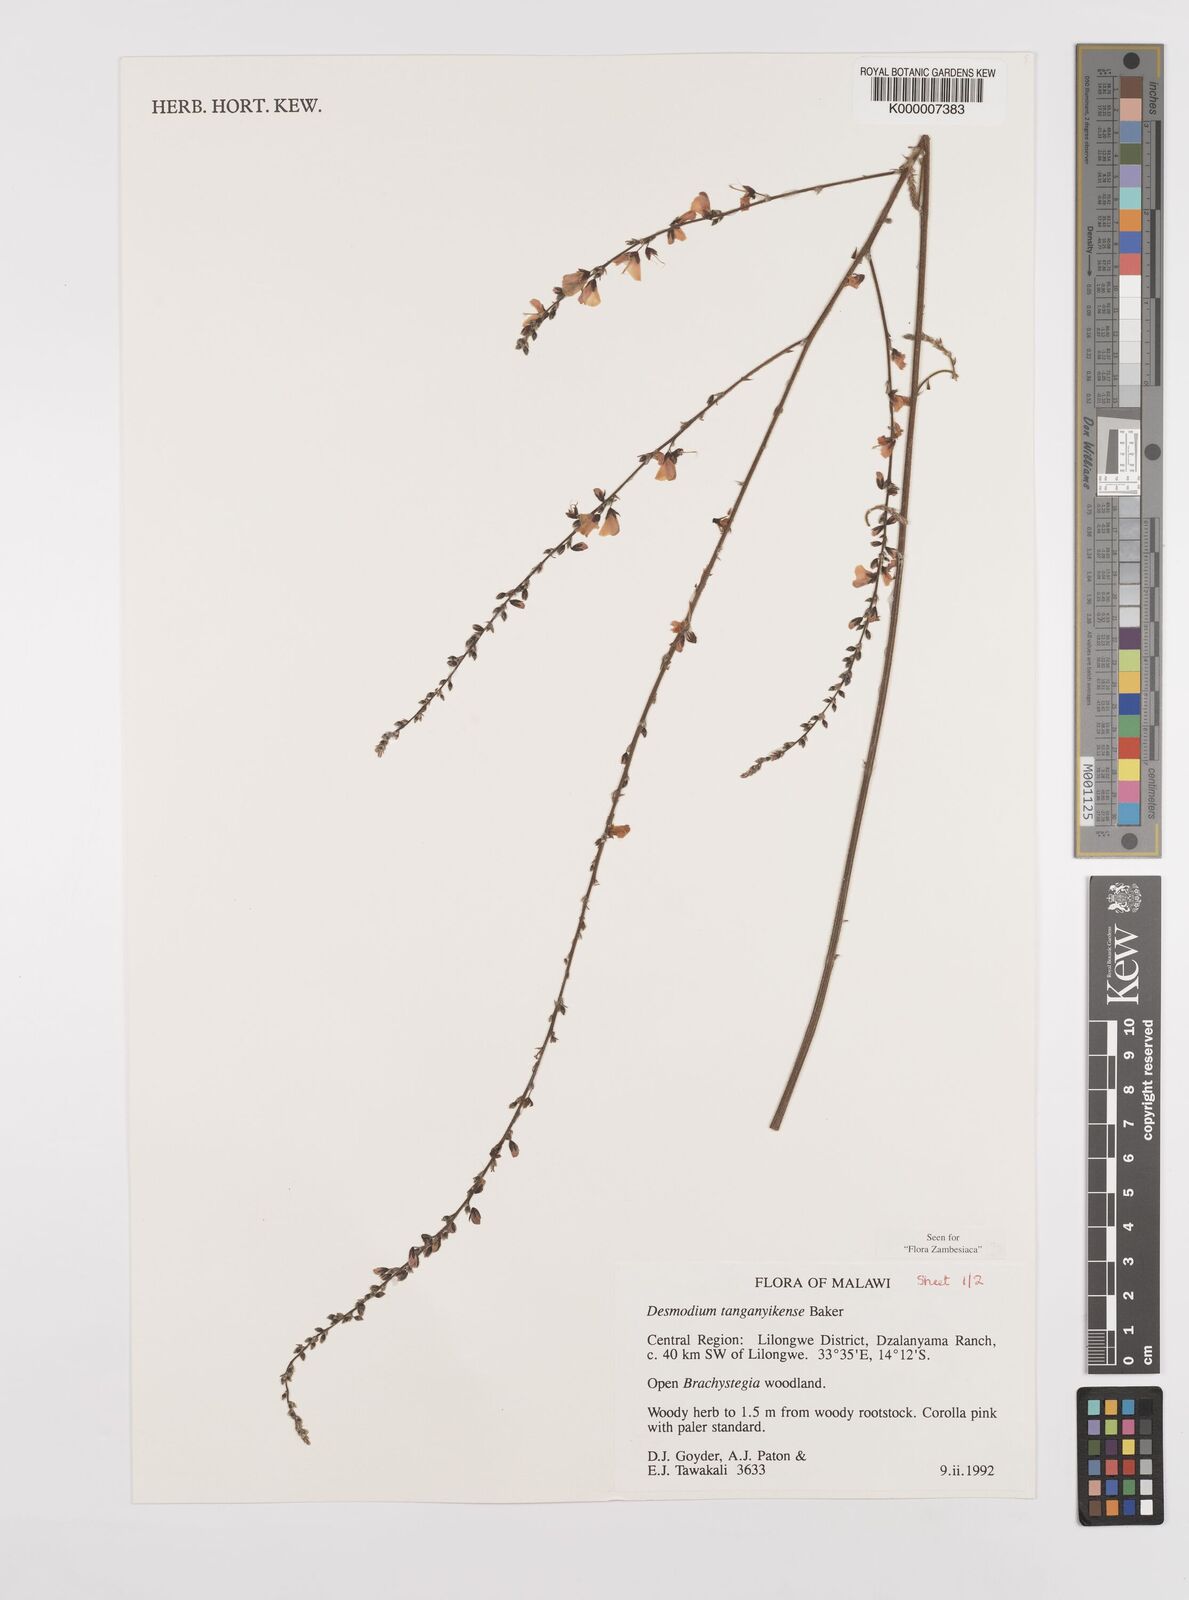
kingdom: Plantae
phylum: Tracheophyta
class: Magnoliopsida
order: Fabales
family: Fabaceae
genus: Pleurolobus
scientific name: Pleurolobus tanganyikensis
